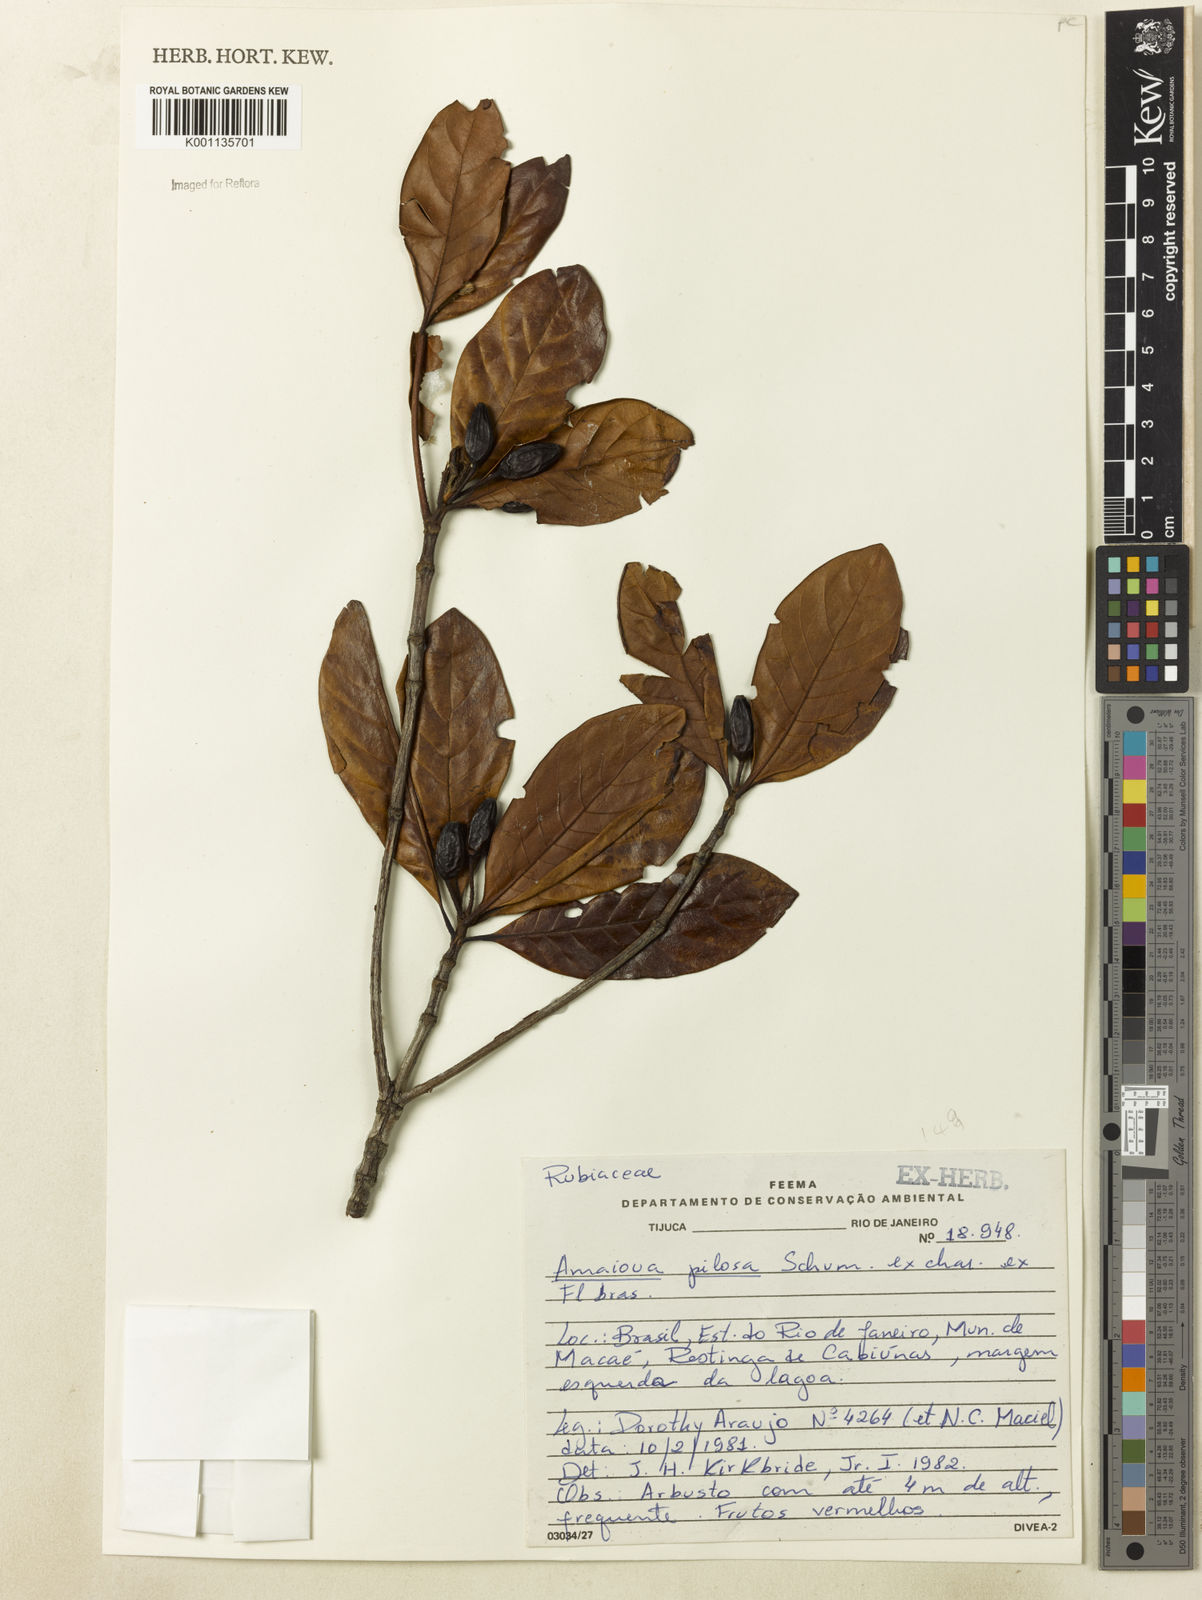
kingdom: Plantae
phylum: Tracheophyta
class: Magnoliopsida
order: Gentianales
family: Rubiaceae
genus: Amaioua
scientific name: Amaioua pilosa
